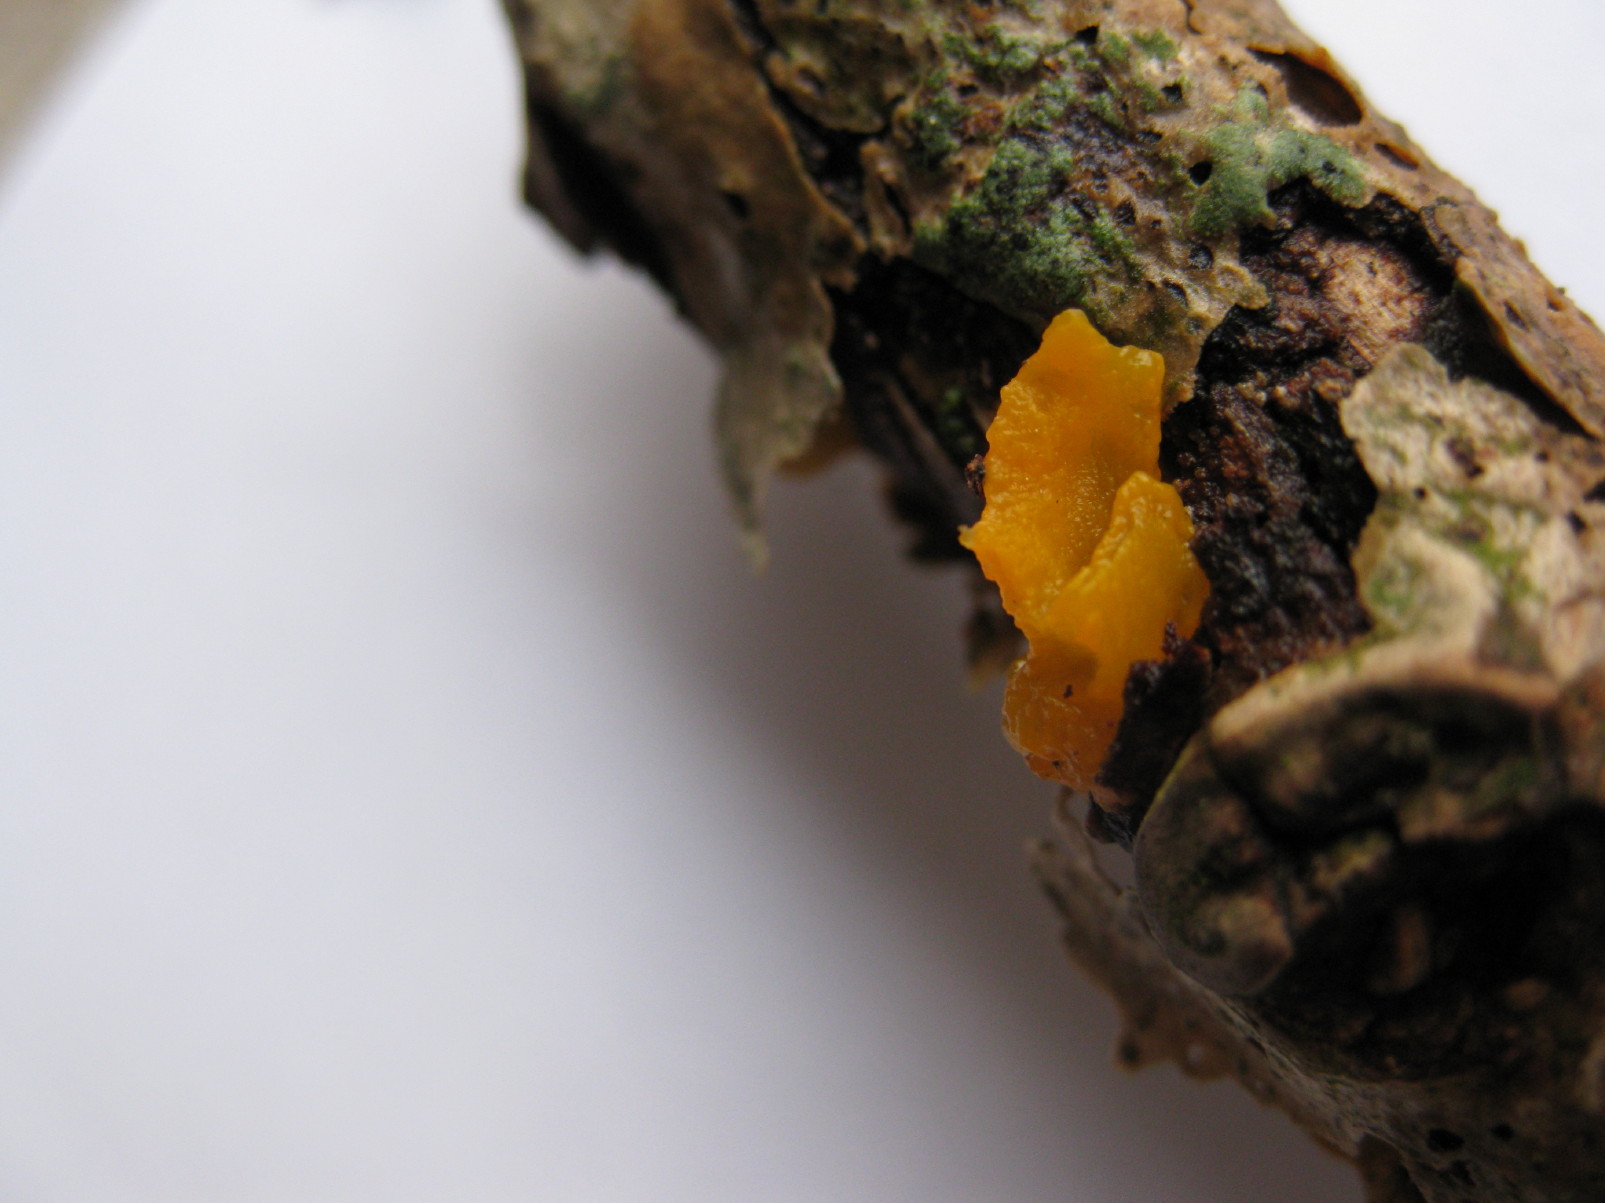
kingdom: Fungi
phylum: Basidiomycota
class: Tremellomycetes
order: Tremellales
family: Tremellaceae
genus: Tremella
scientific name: Tremella mesenterica
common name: gul bævresvamp
